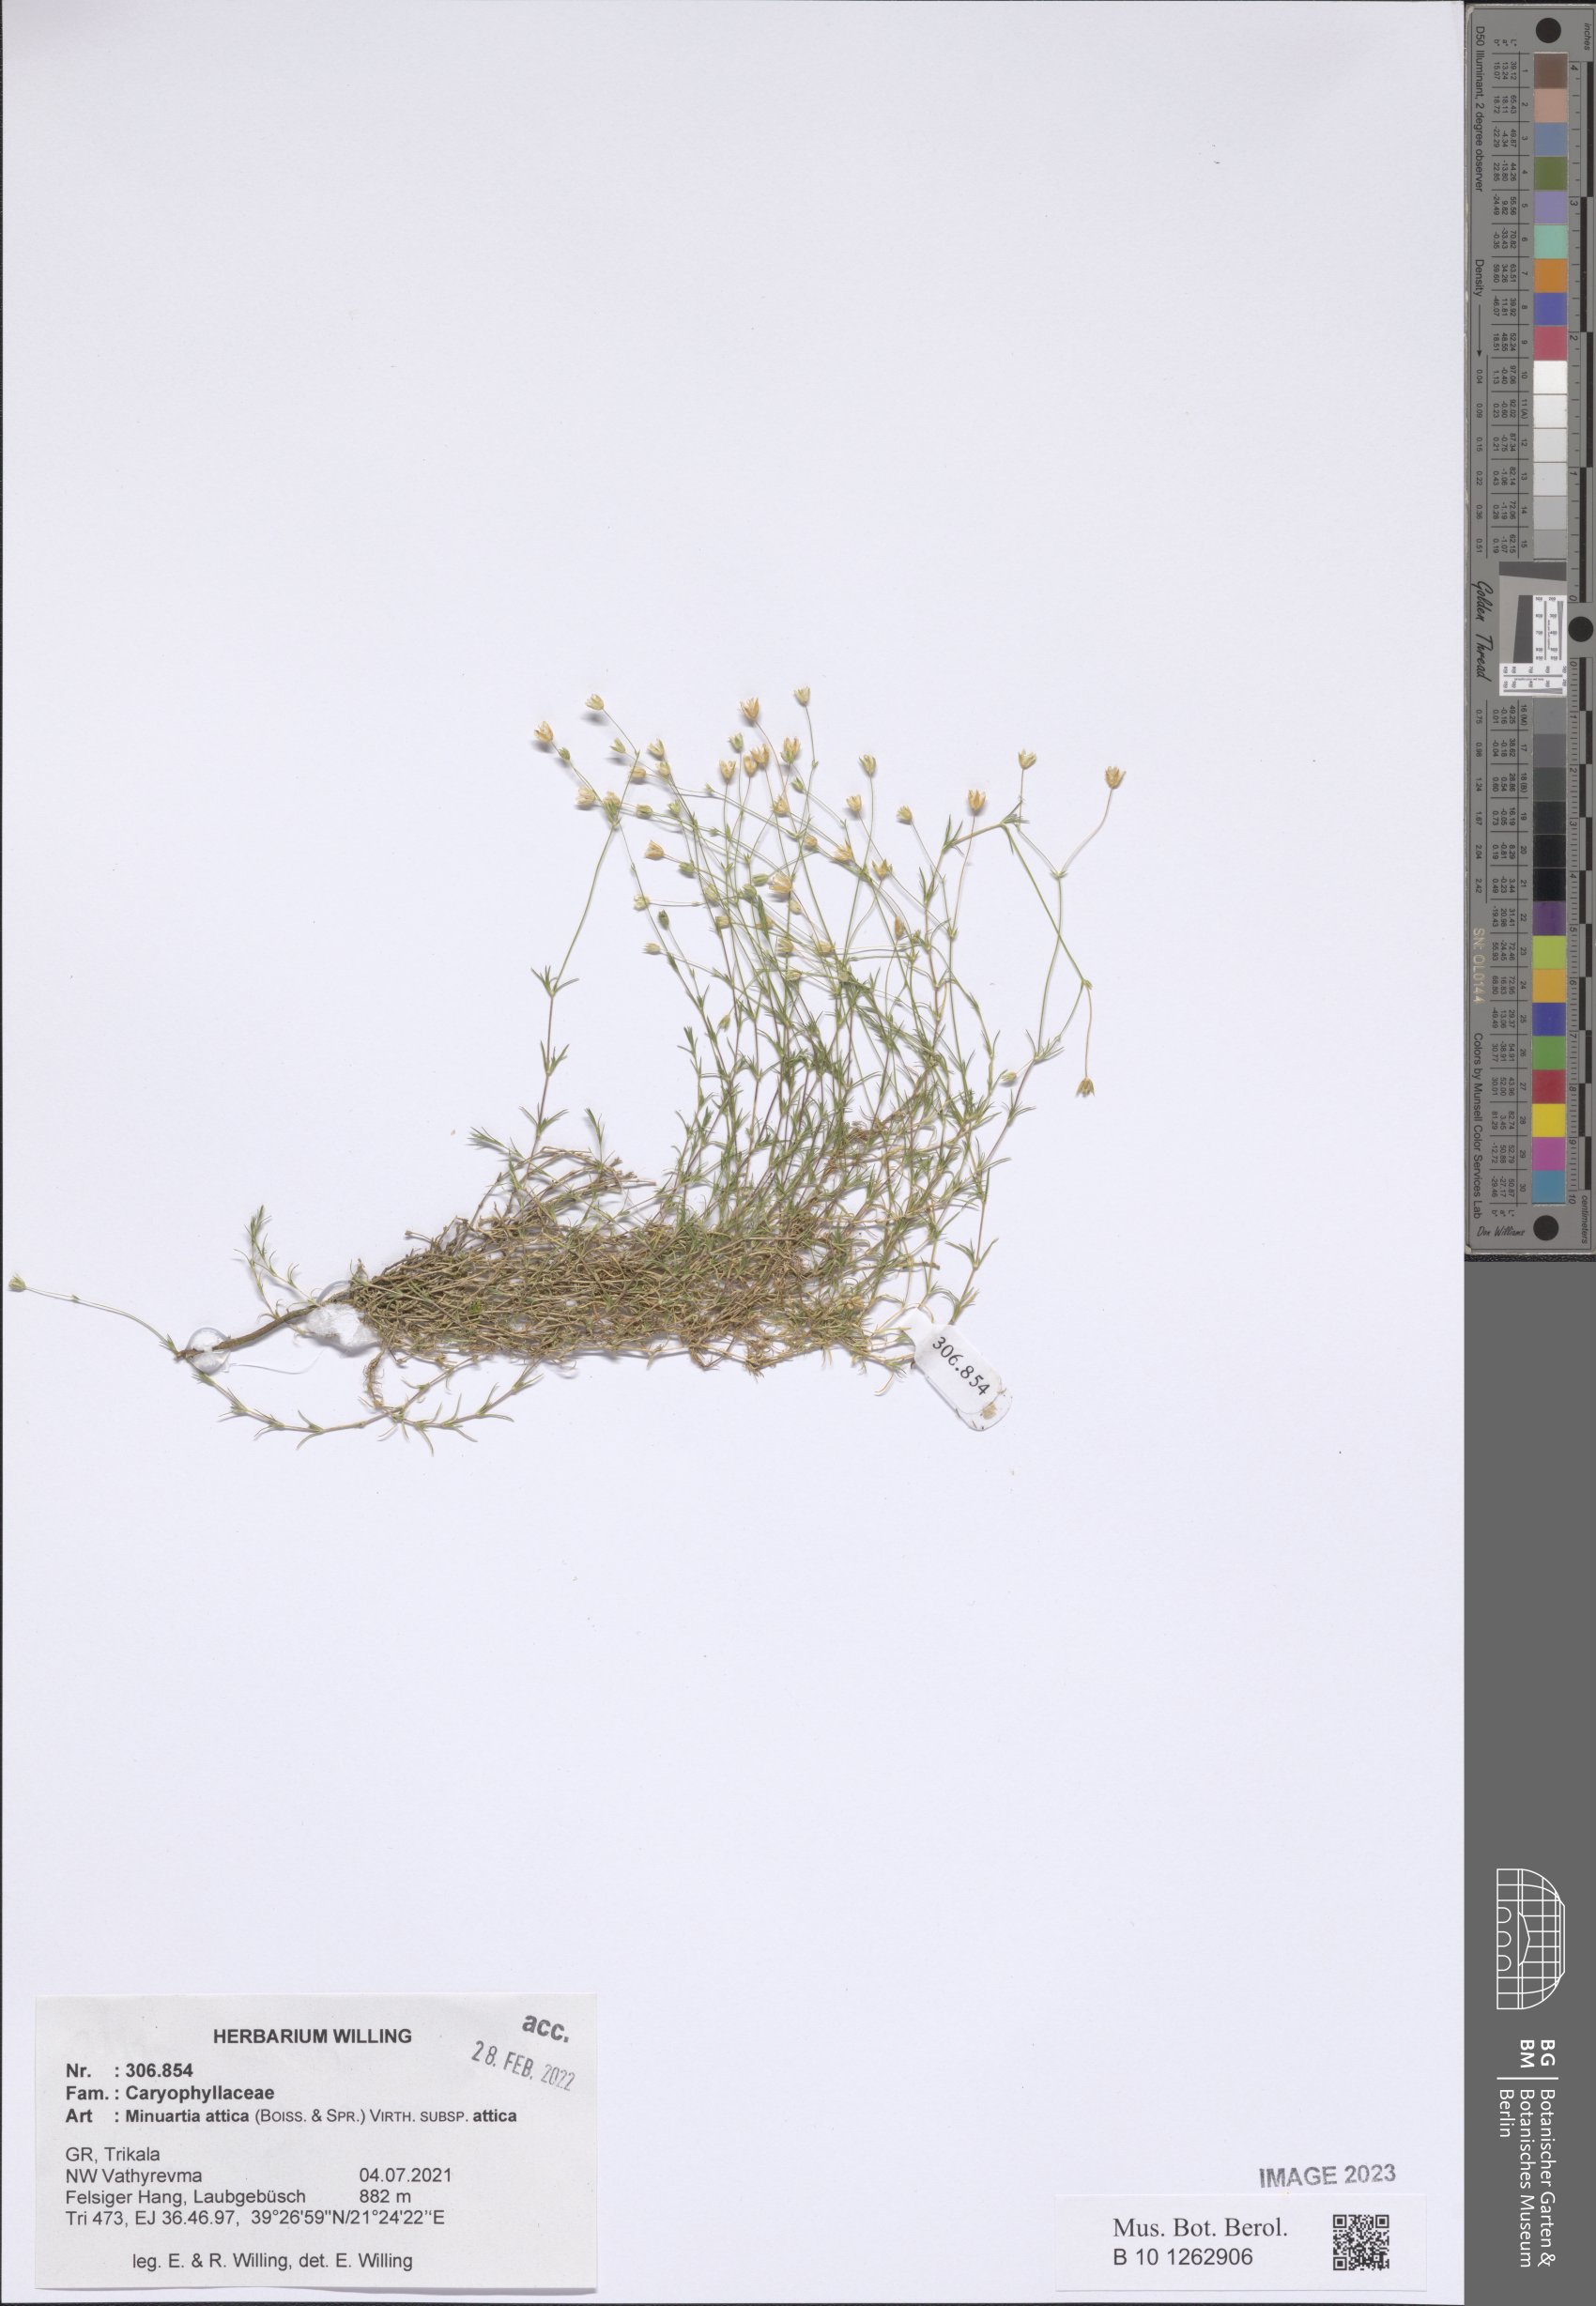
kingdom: Plantae
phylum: Tracheophyta
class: Magnoliopsida
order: Caryophyllales
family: Caryophyllaceae
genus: Sabulina
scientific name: Sabulina attica
